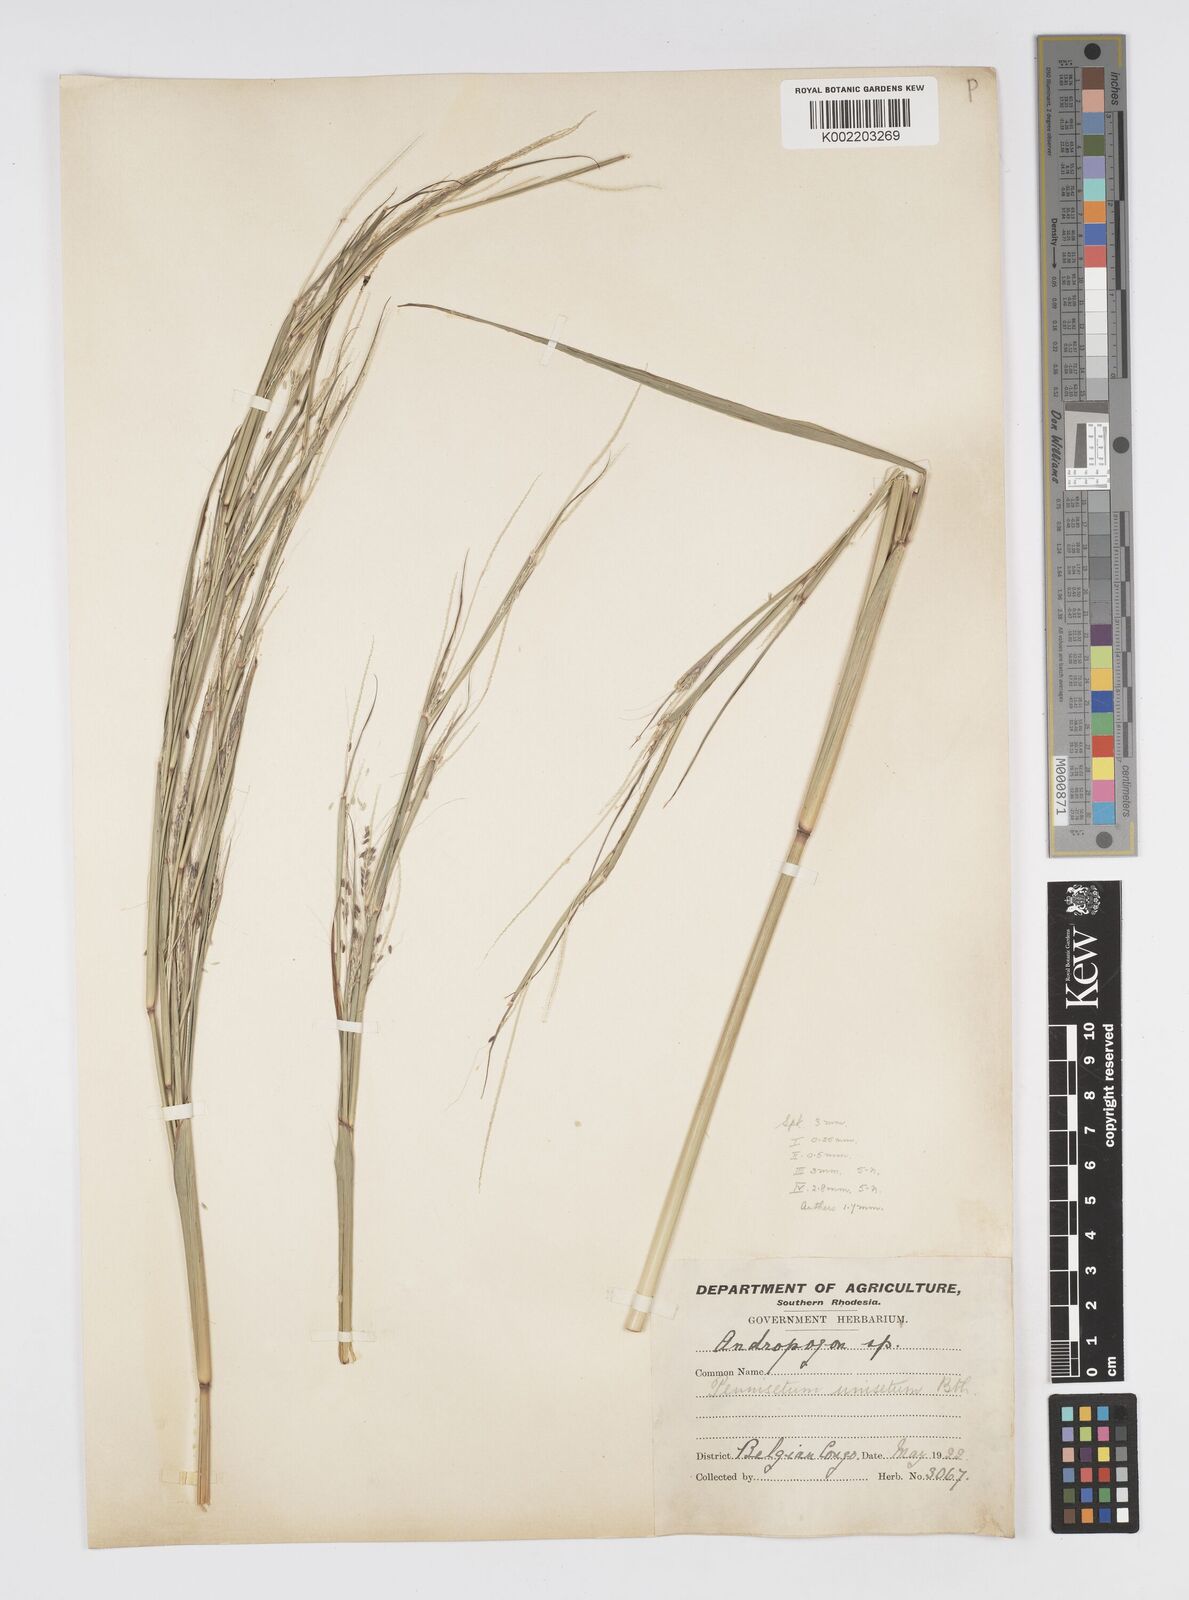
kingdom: Plantae
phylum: Tracheophyta
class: Liliopsida
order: Poales
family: Poaceae
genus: Cenchrus
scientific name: Cenchrus unisetus
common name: Natal grass
